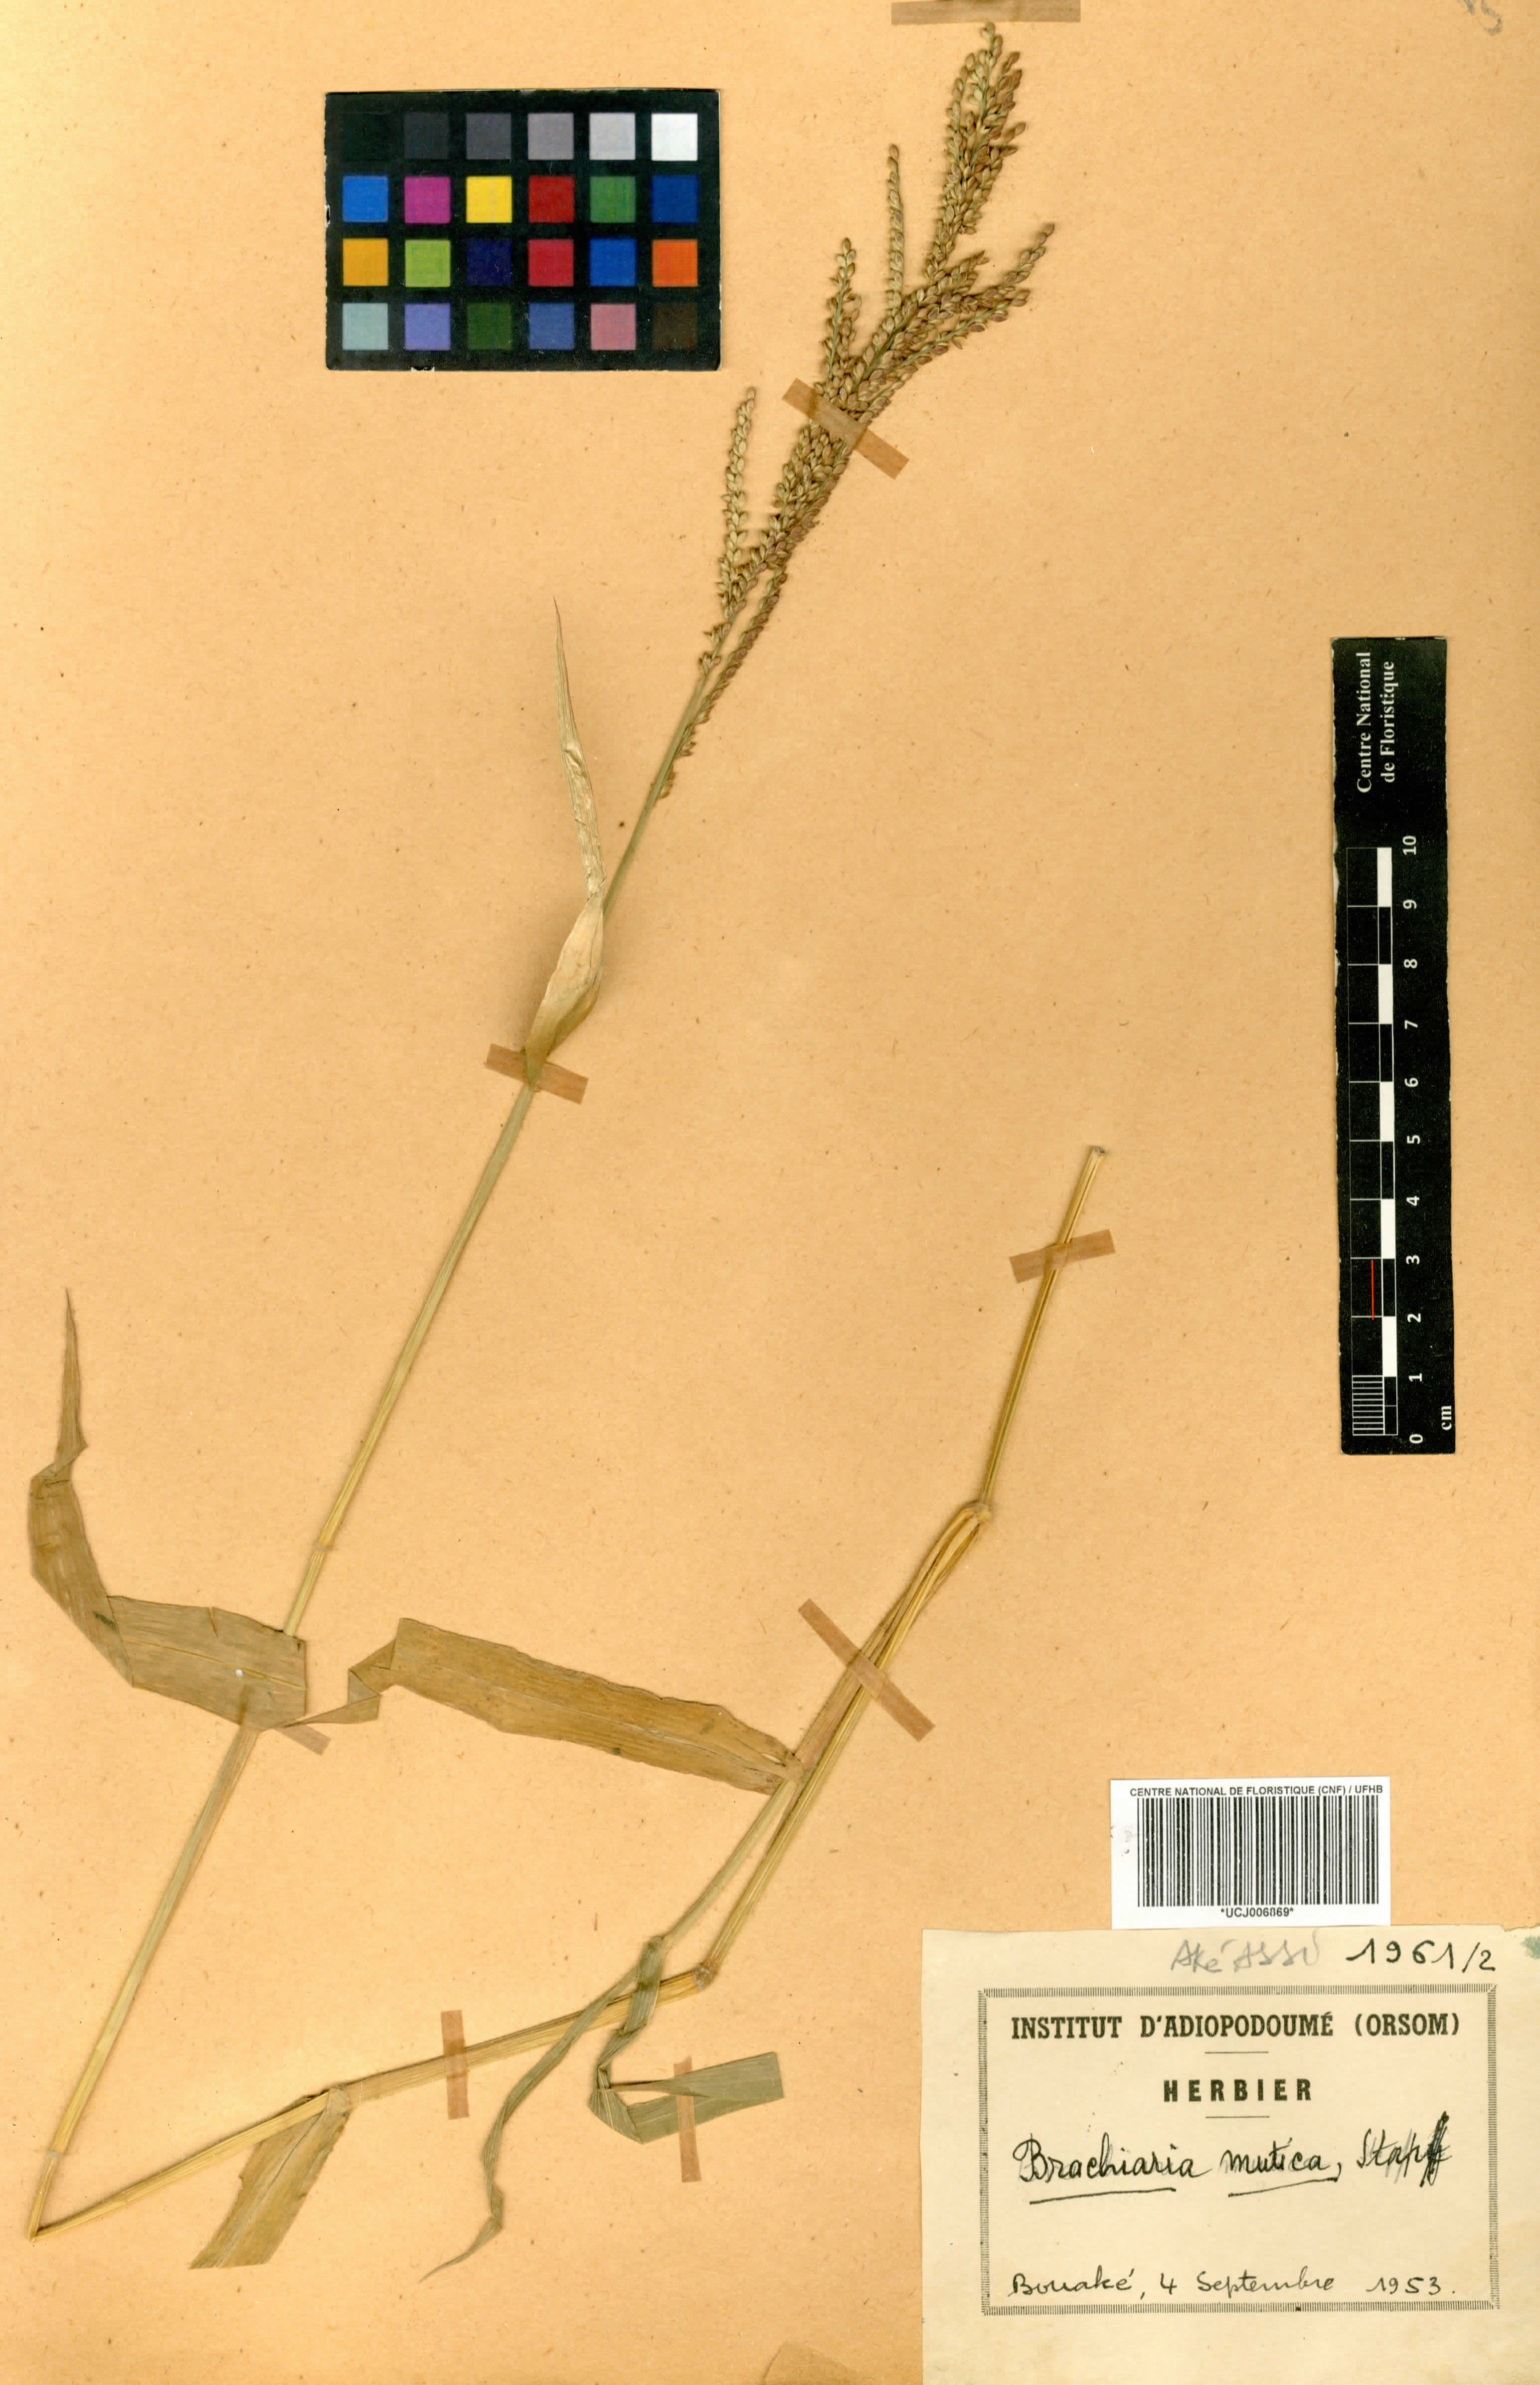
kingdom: Plantae
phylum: Tracheophyta
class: Liliopsida
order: Poales
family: Poaceae
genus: Urochloa
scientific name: Urochloa mutica
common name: Para grass
